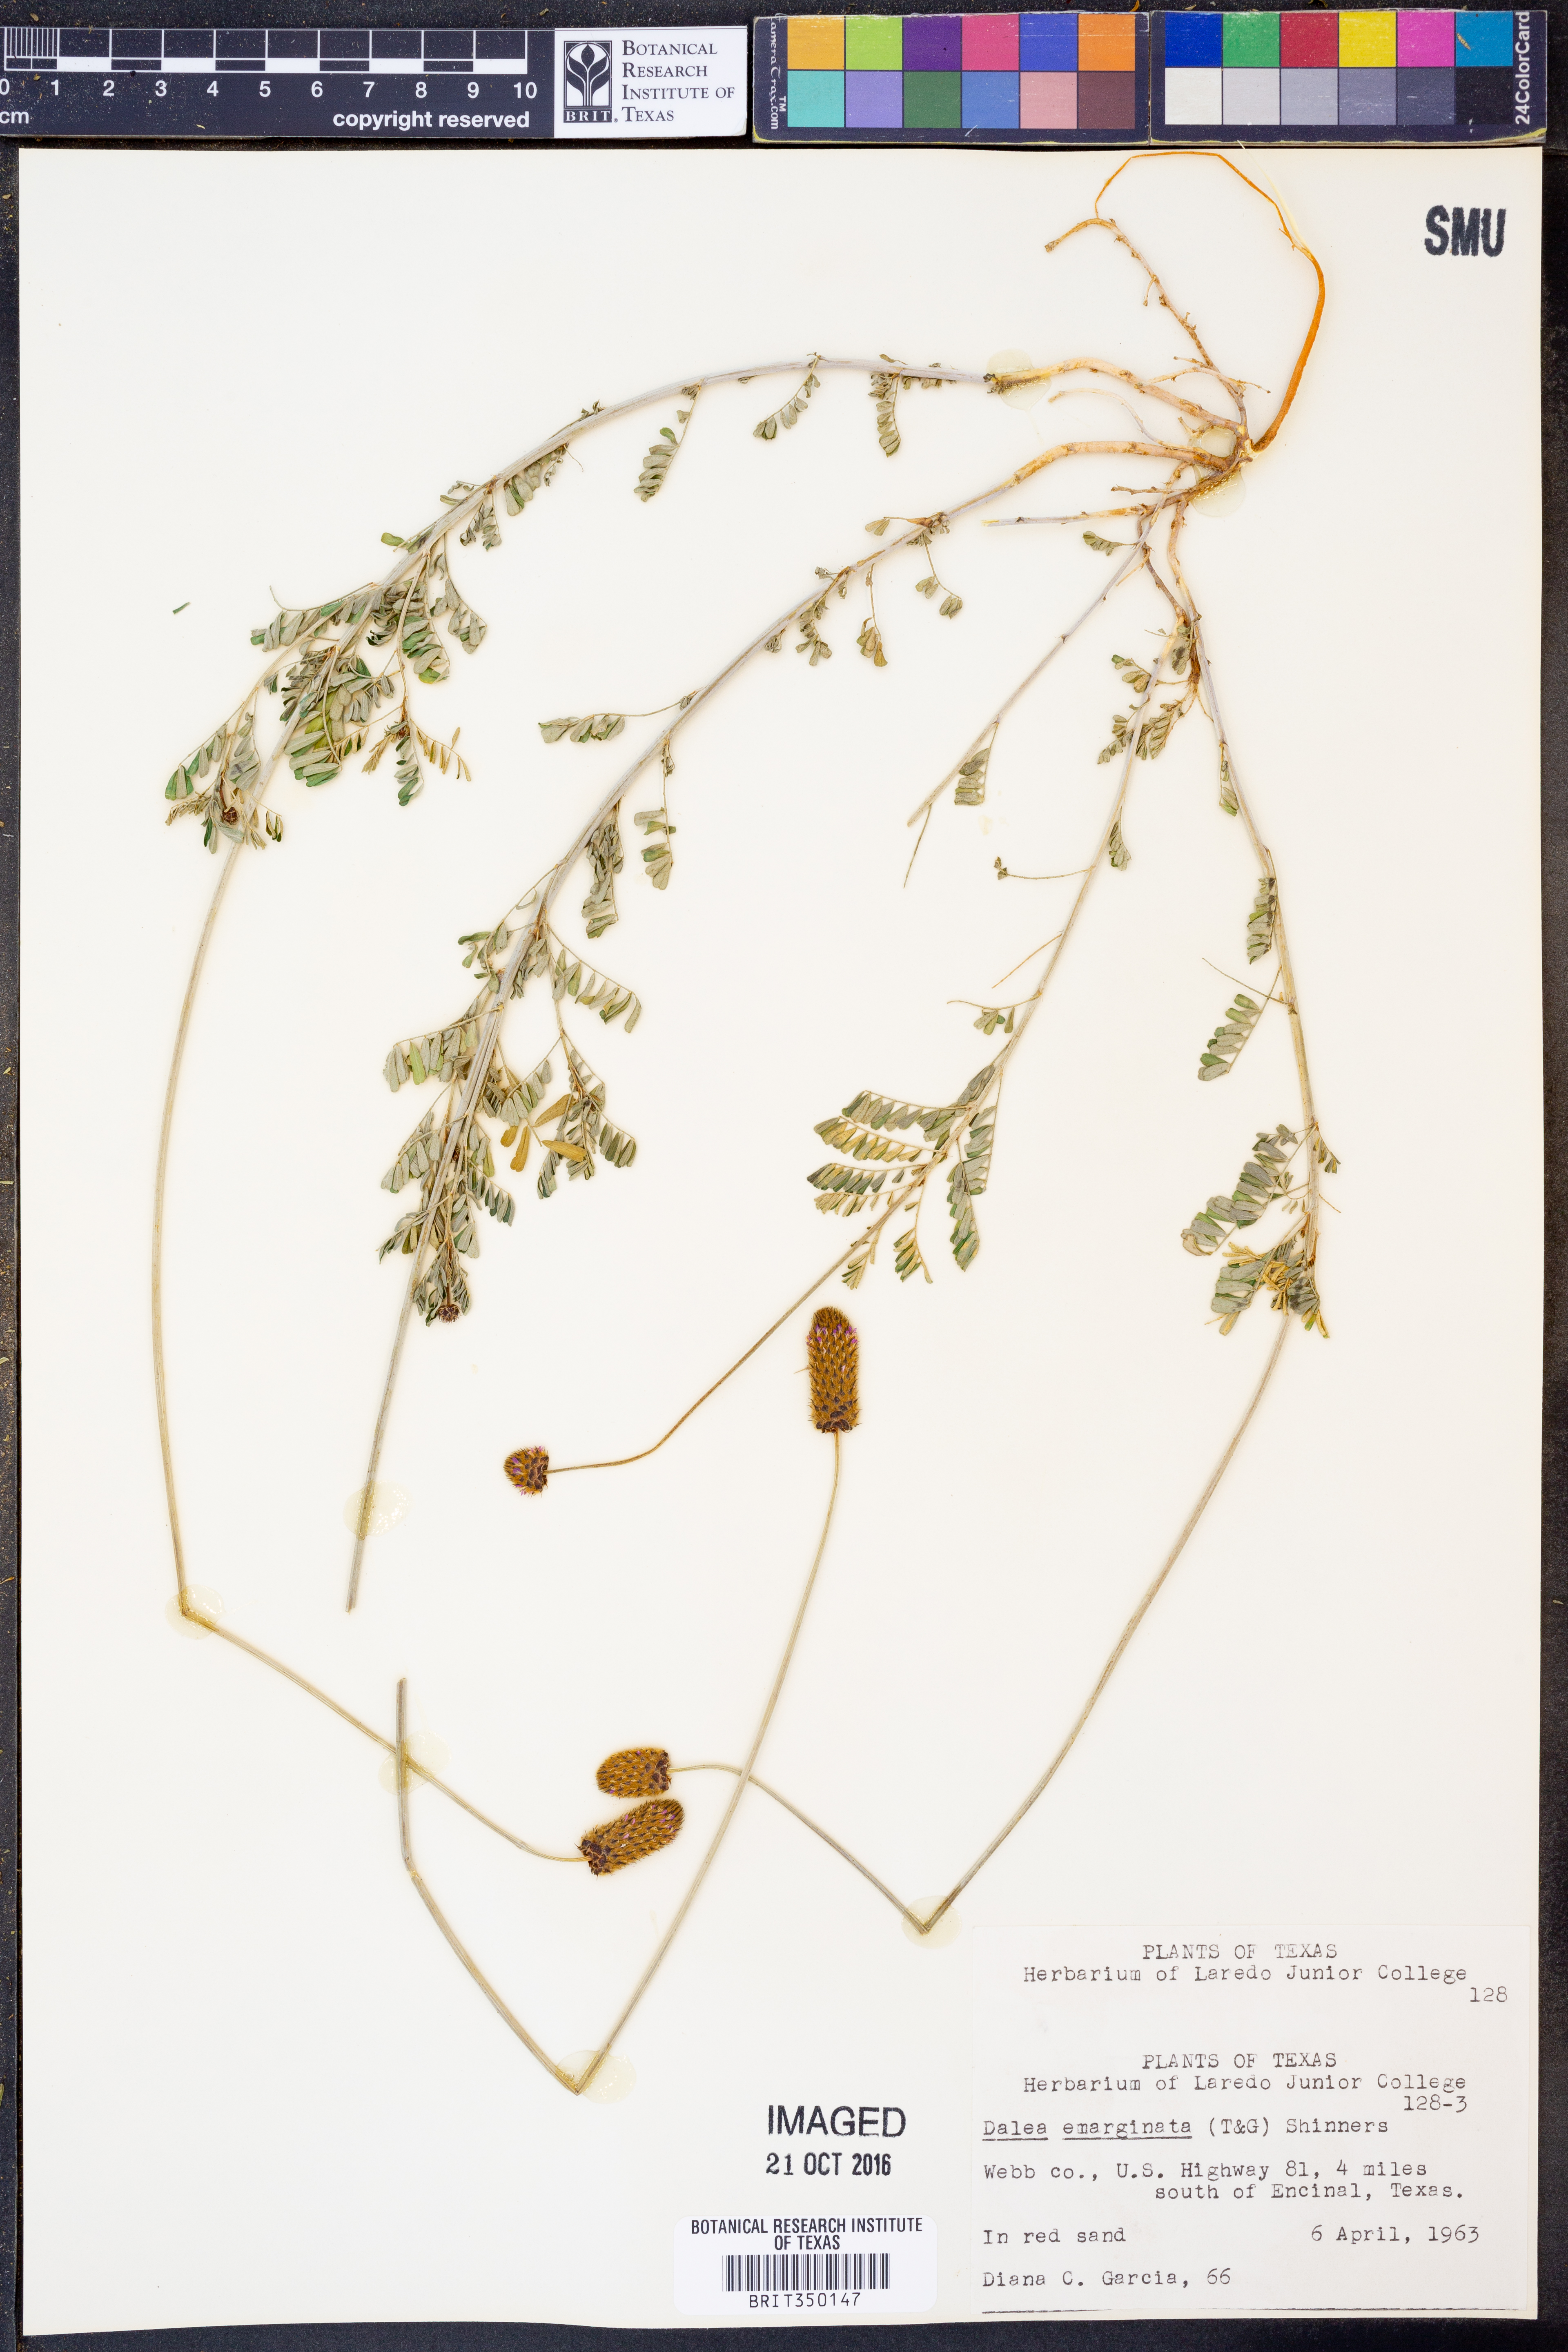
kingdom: Plantae
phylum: Tracheophyta
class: Magnoliopsida
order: Fabales
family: Fabaceae
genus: Dalea
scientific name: Dalea emarginata
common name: Wedgeleaf prairie clover
